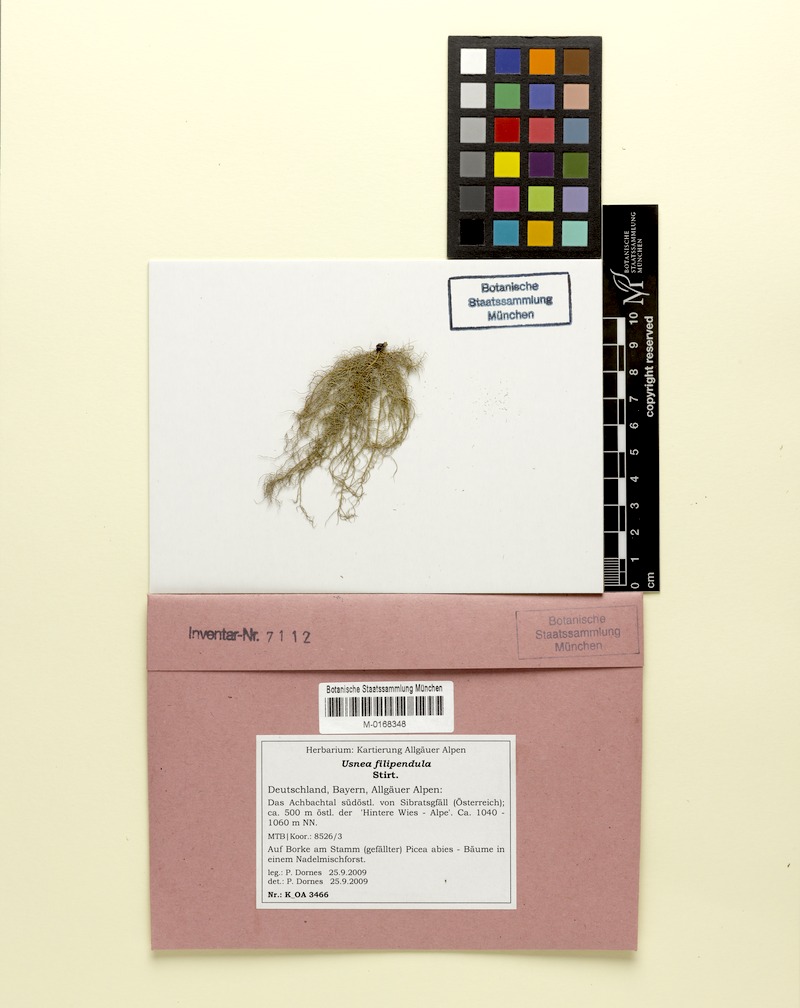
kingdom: Fungi
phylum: Ascomycota
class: Lecanoromycetes
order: Lecanorales
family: Parmeliaceae
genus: Usnea
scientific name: Usnea filipendula
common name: Fishbone beard lichen
